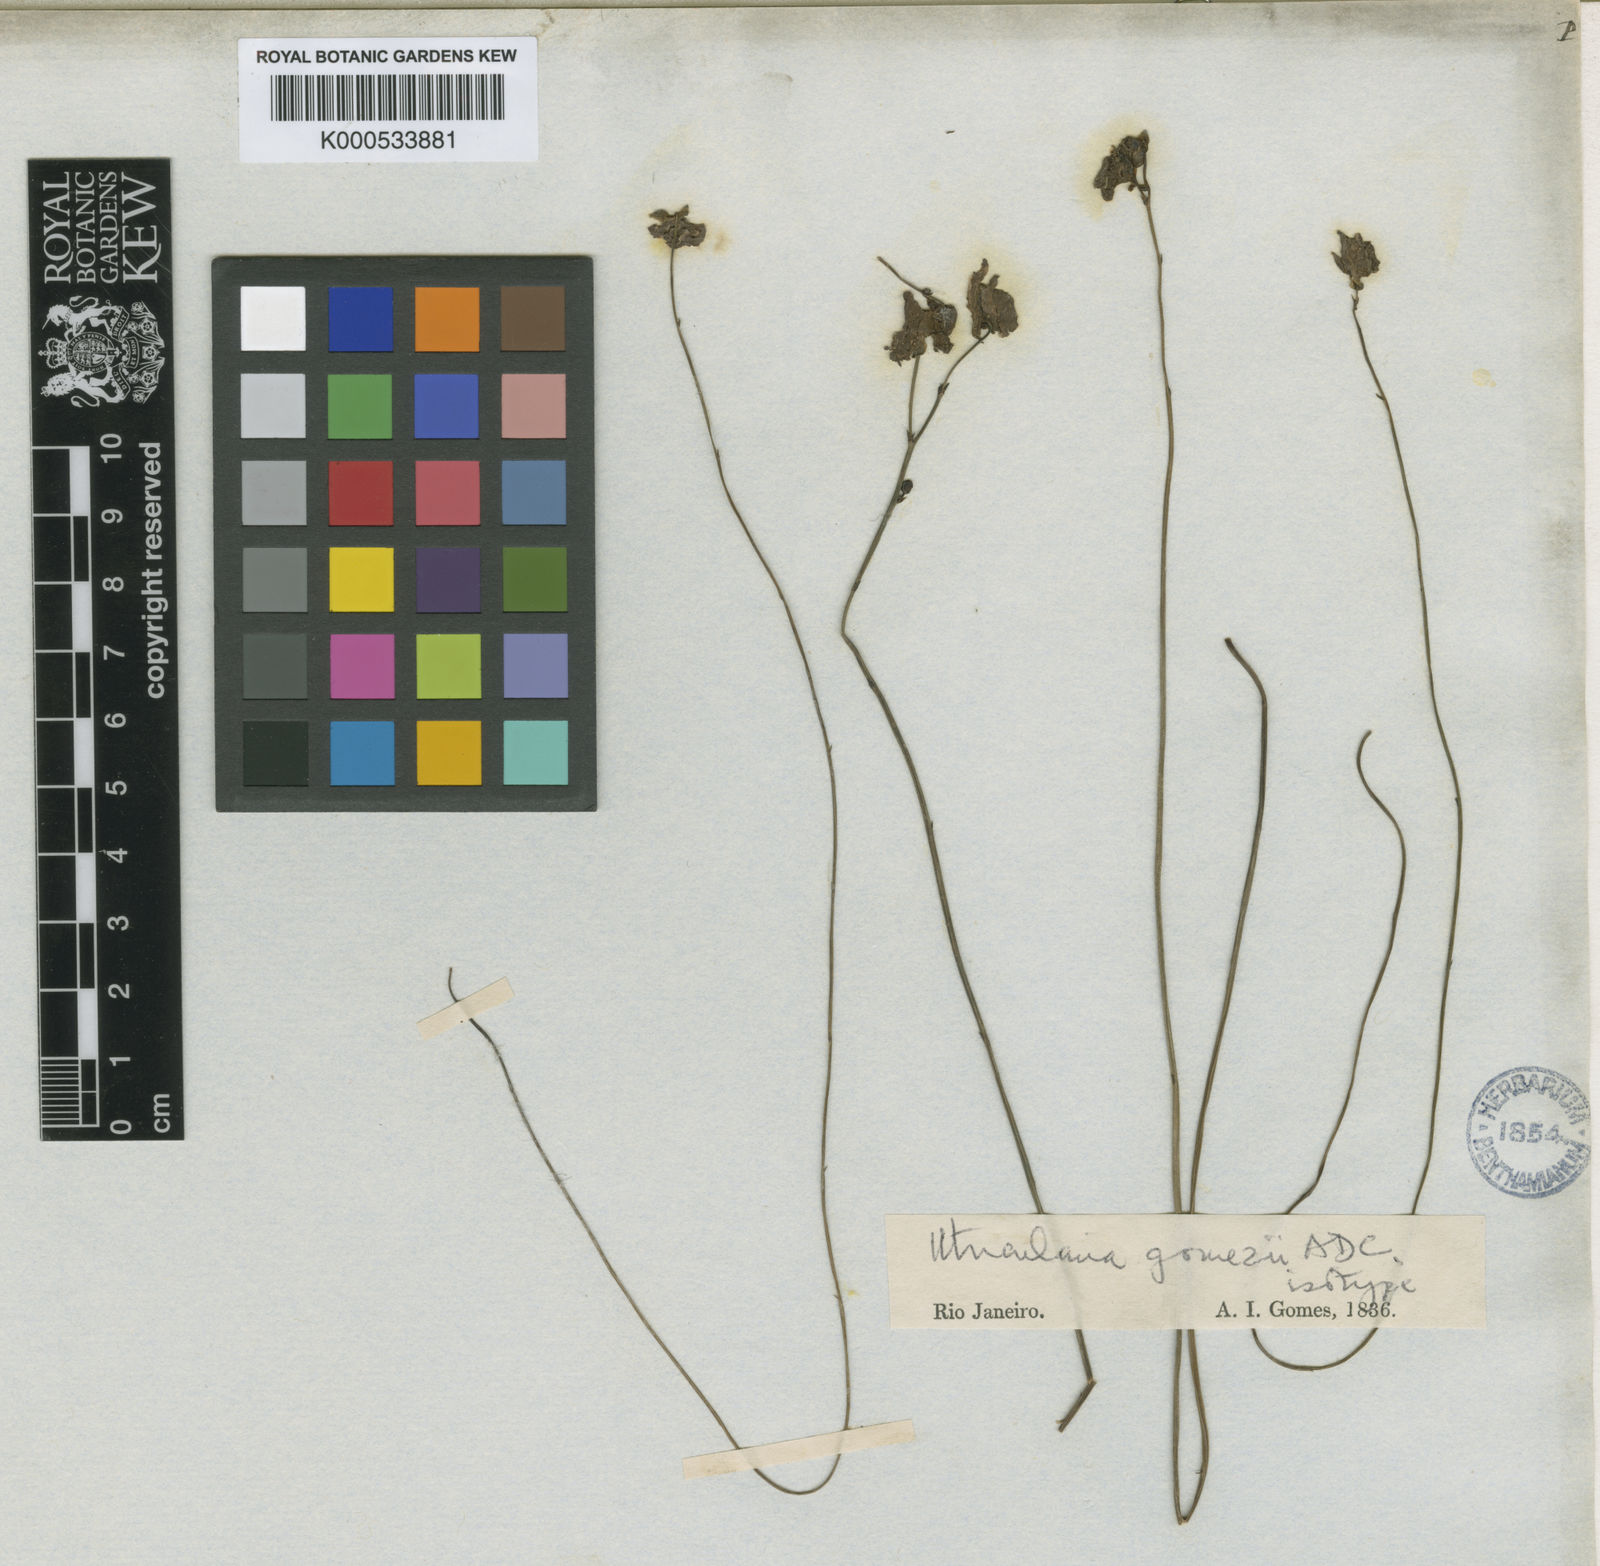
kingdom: Plantae
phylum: Tracheophyta
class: Magnoliopsida
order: Lamiales
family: Lentibulariaceae
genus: Utricularia
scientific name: Utricularia tricolor
